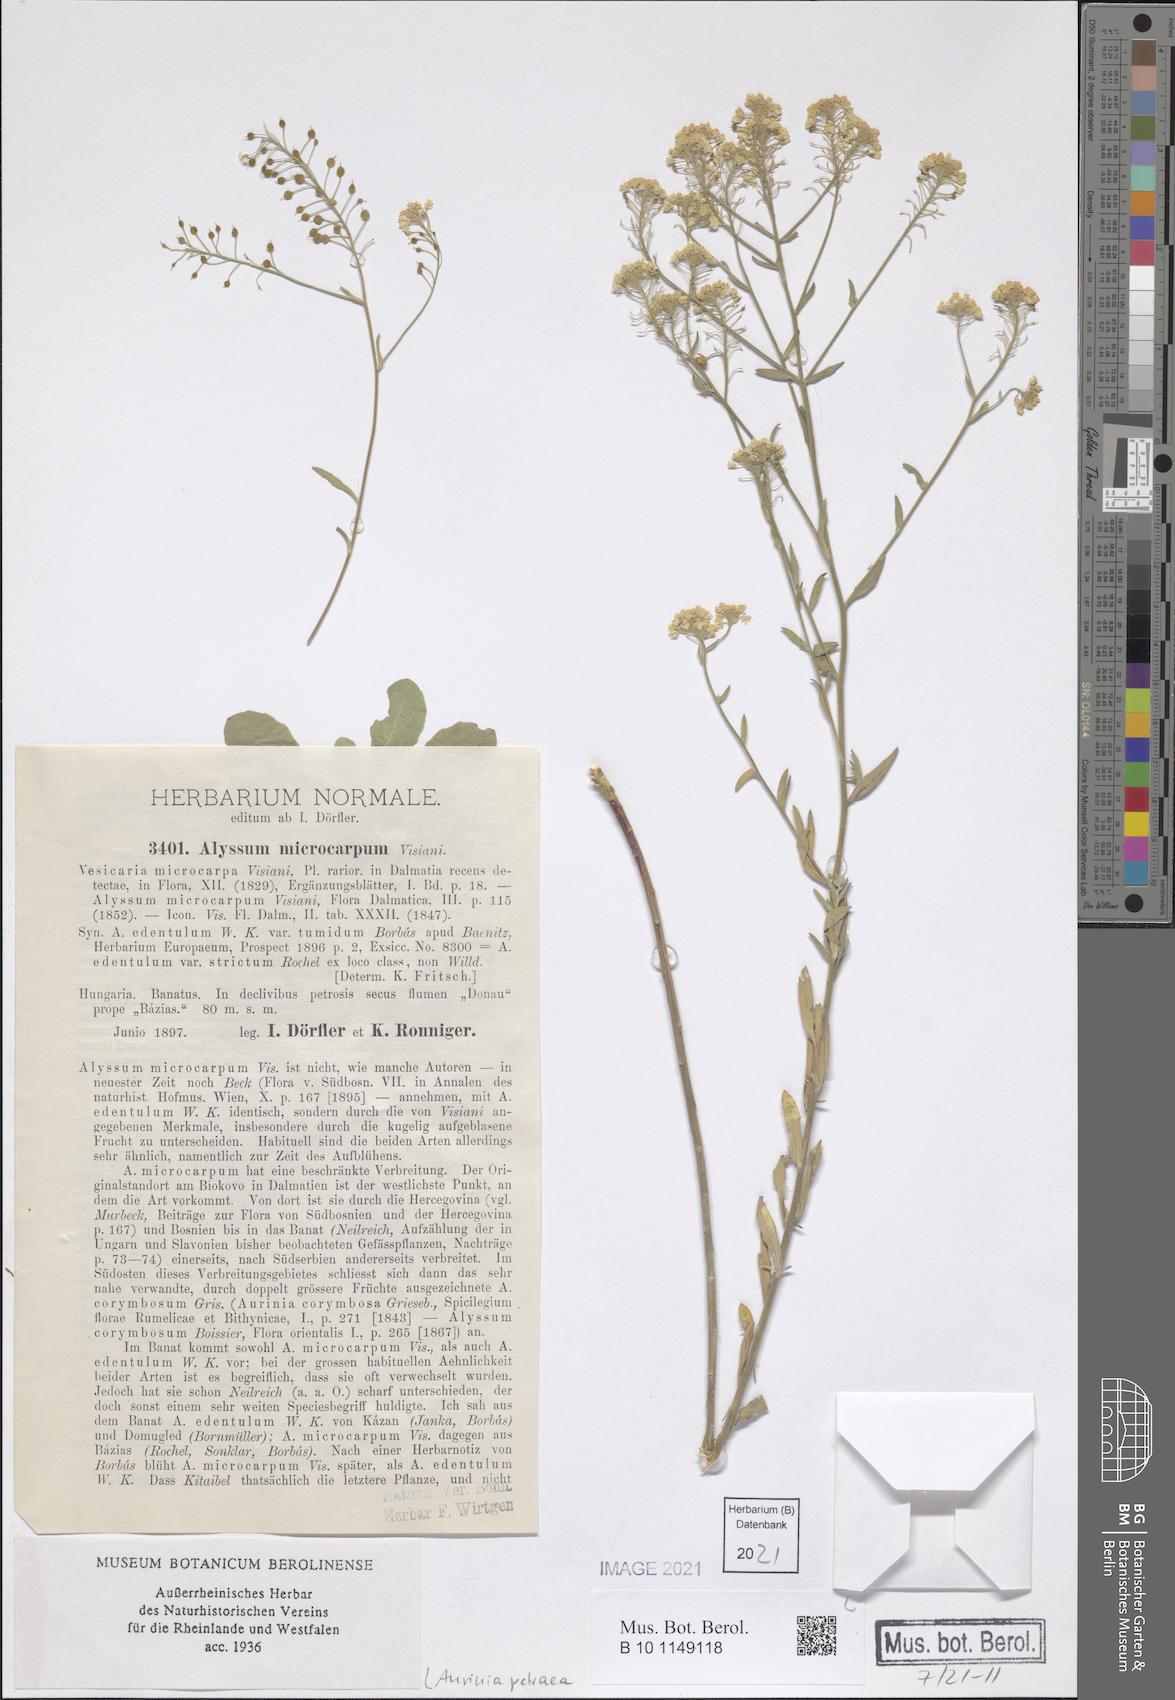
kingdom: Plantae
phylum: Tracheophyta
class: Magnoliopsida
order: Brassicales
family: Brassicaceae
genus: Aurinia
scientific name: Aurinia petraea
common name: Goldentuft
